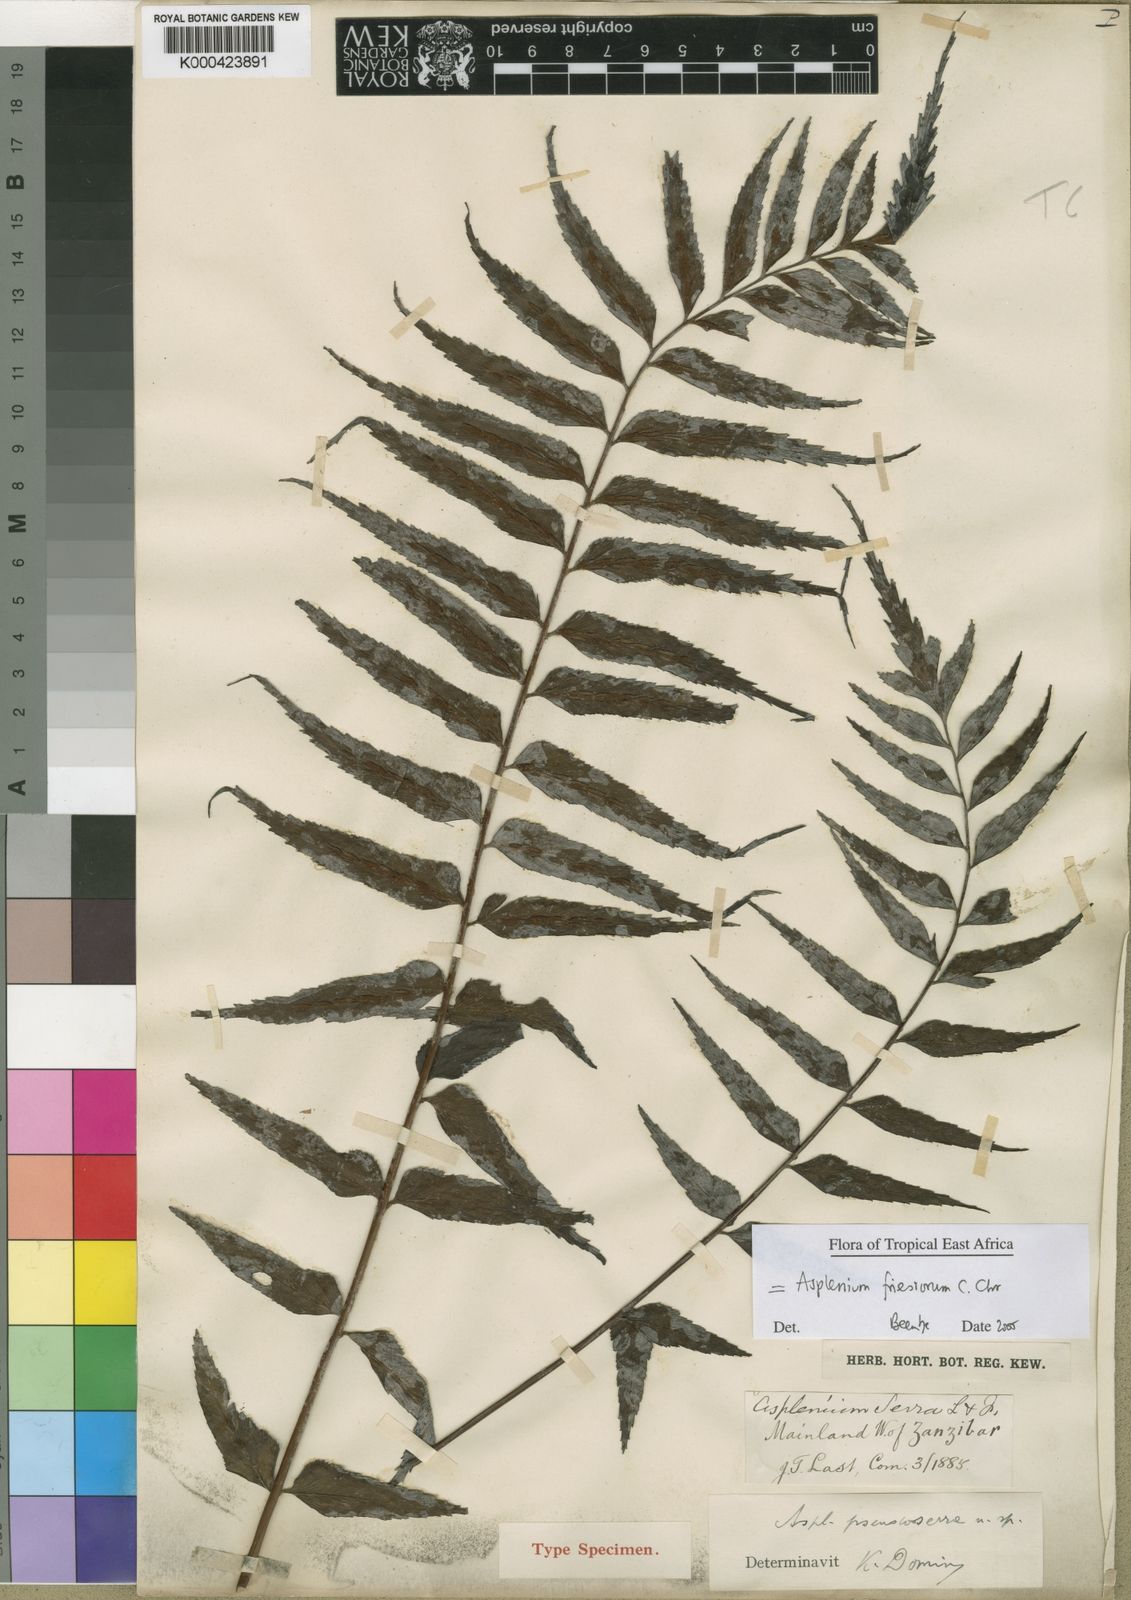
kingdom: Plantae
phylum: Tracheophyta
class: Polypodiopsida
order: Polypodiales
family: Aspleniaceae
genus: Asplenium
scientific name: Asplenium gueinzianum
